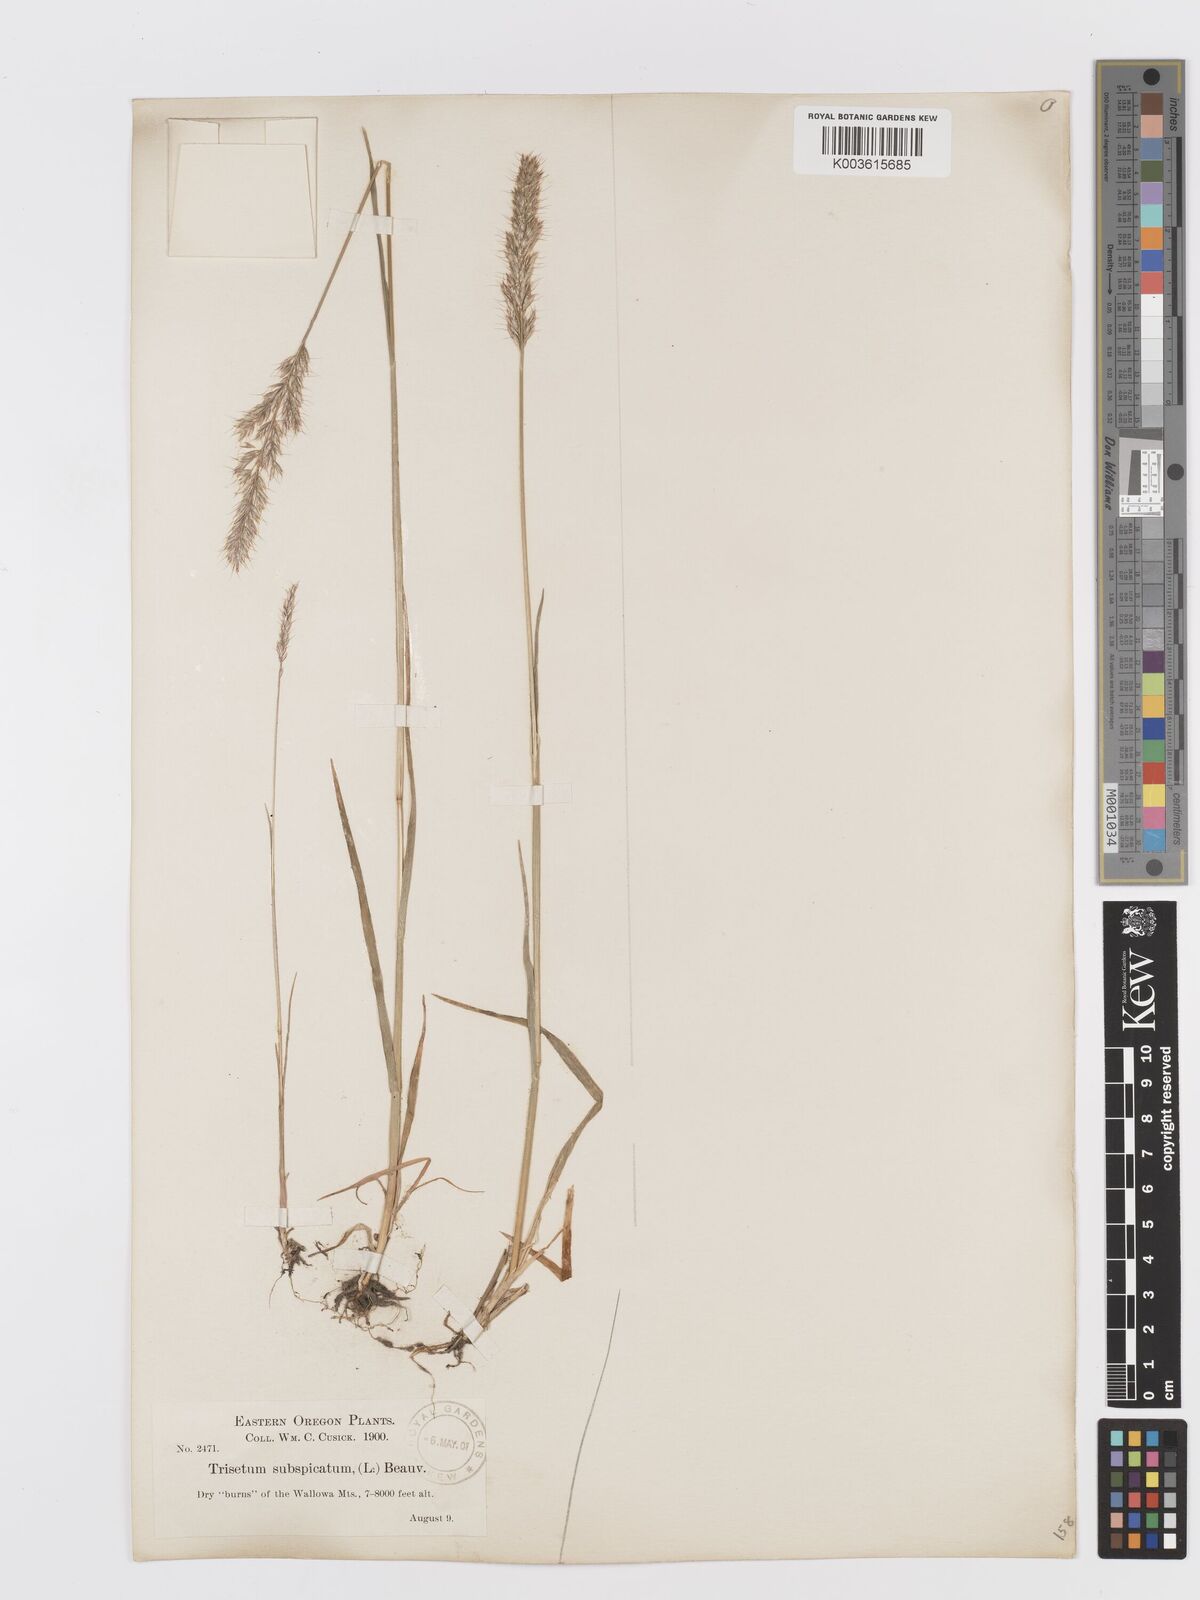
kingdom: Plantae
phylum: Tracheophyta
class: Liliopsida
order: Poales
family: Poaceae
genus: Koeleria
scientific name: Koeleria spicata
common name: Mountain trisetum
